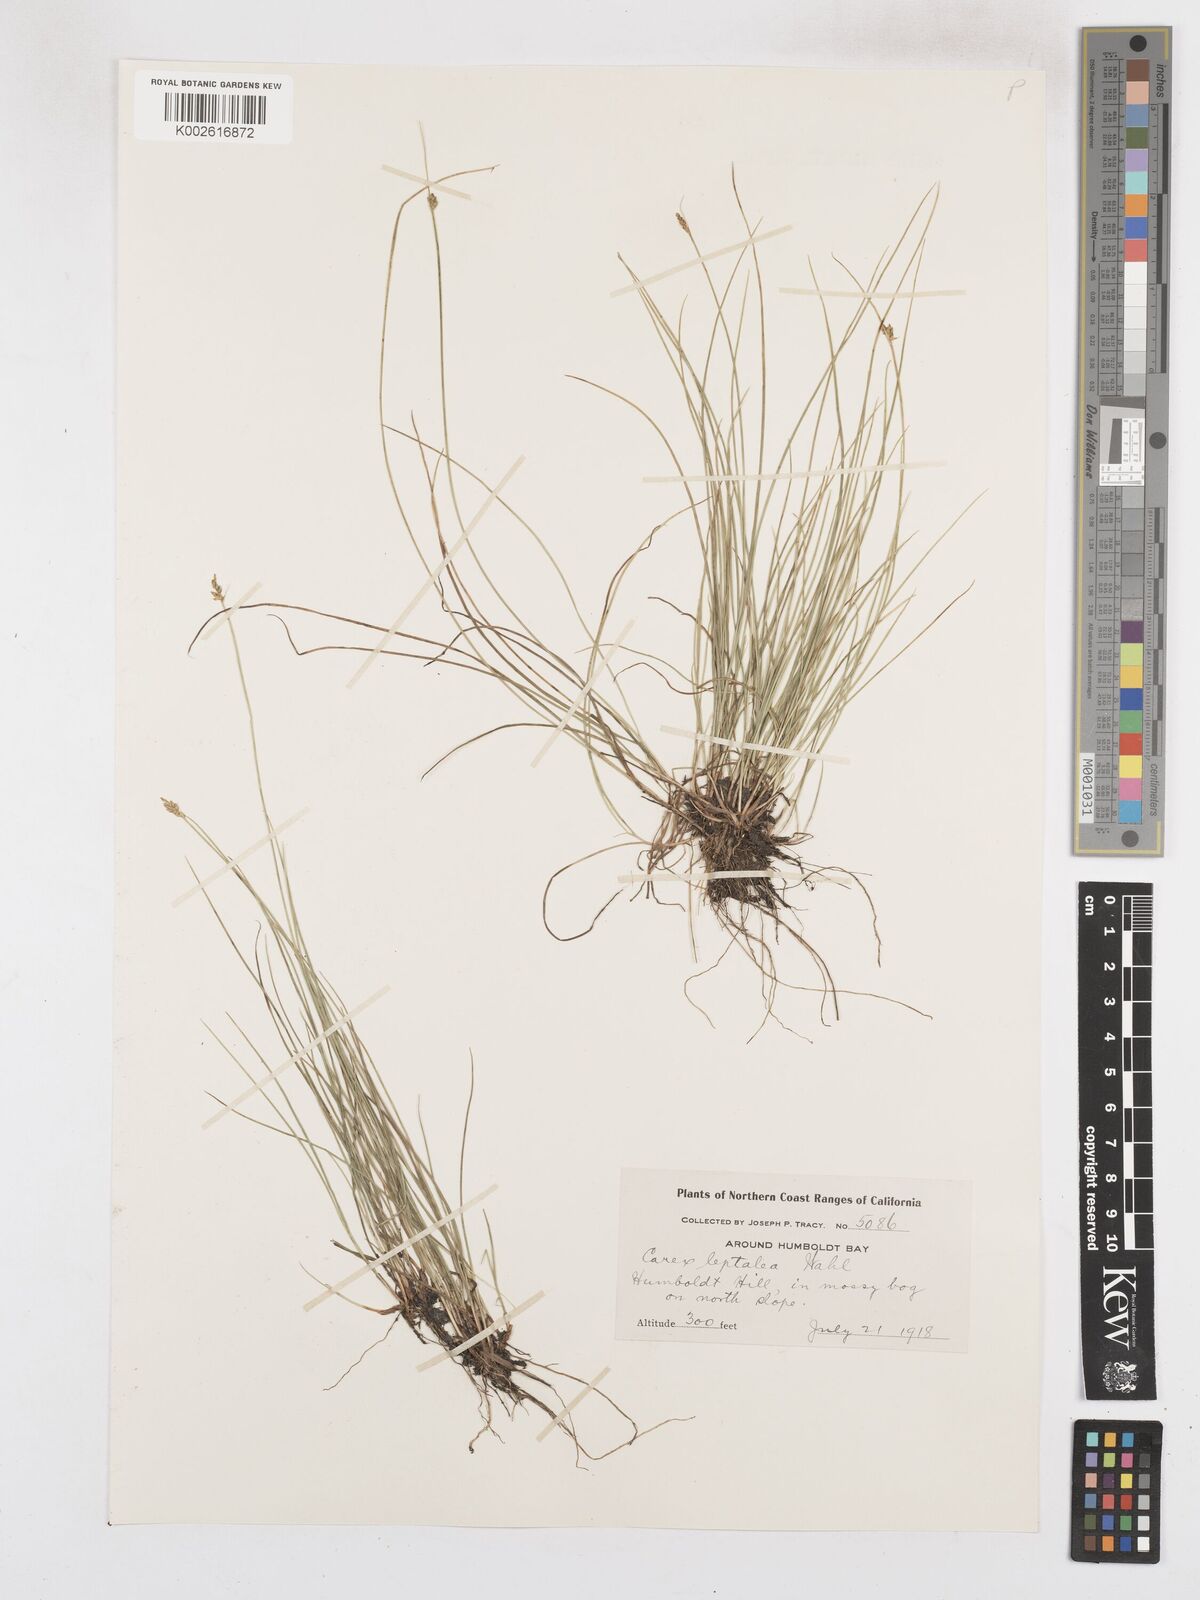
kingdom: Plantae
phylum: Tracheophyta
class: Liliopsida
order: Poales
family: Cyperaceae
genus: Carex
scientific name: Carex leptalea
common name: Bristly-stalked sedge
